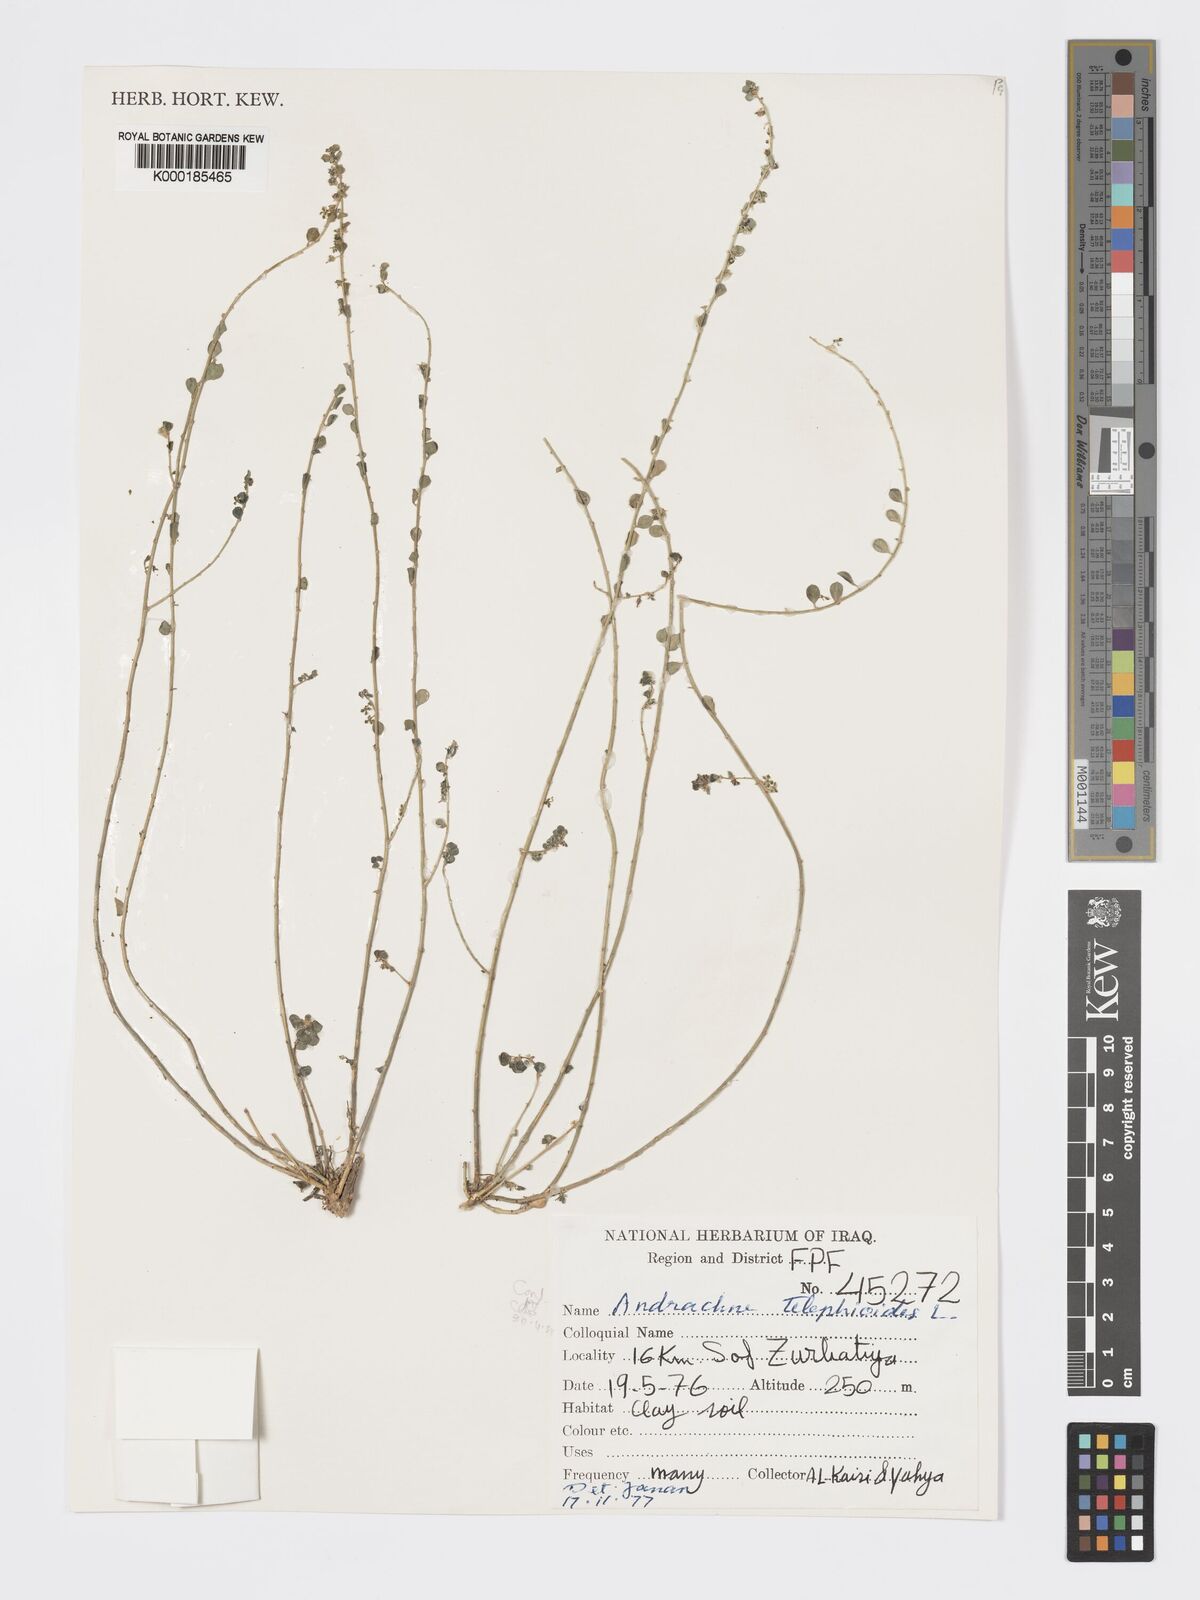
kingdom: Plantae
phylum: Tracheophyta
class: Magnoliopsida
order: Malpighiales
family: Phyllanthaceae
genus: Andrachne
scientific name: Andrachne telephioides
